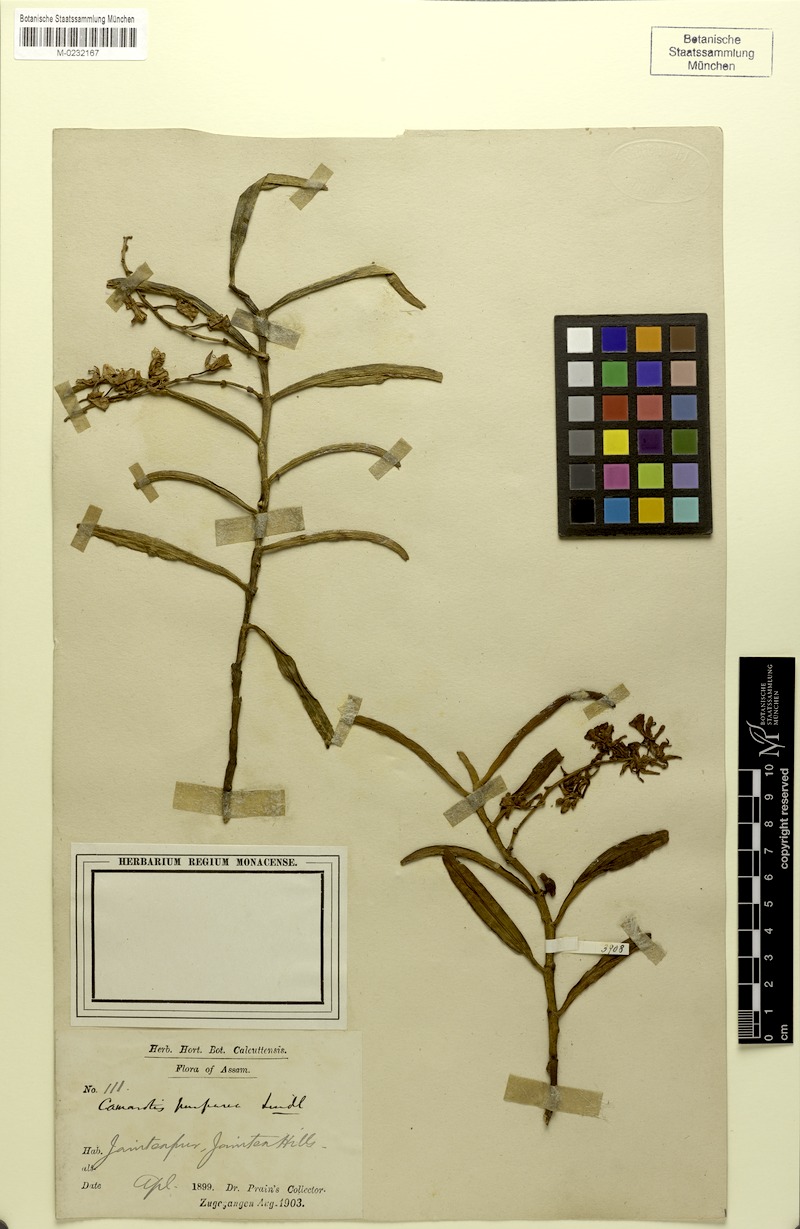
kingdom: Plantae
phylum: Tracheophyta
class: Liliopsida
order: Asparagales
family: Orchidaceae
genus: Micropera
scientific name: Micropera rostrata
